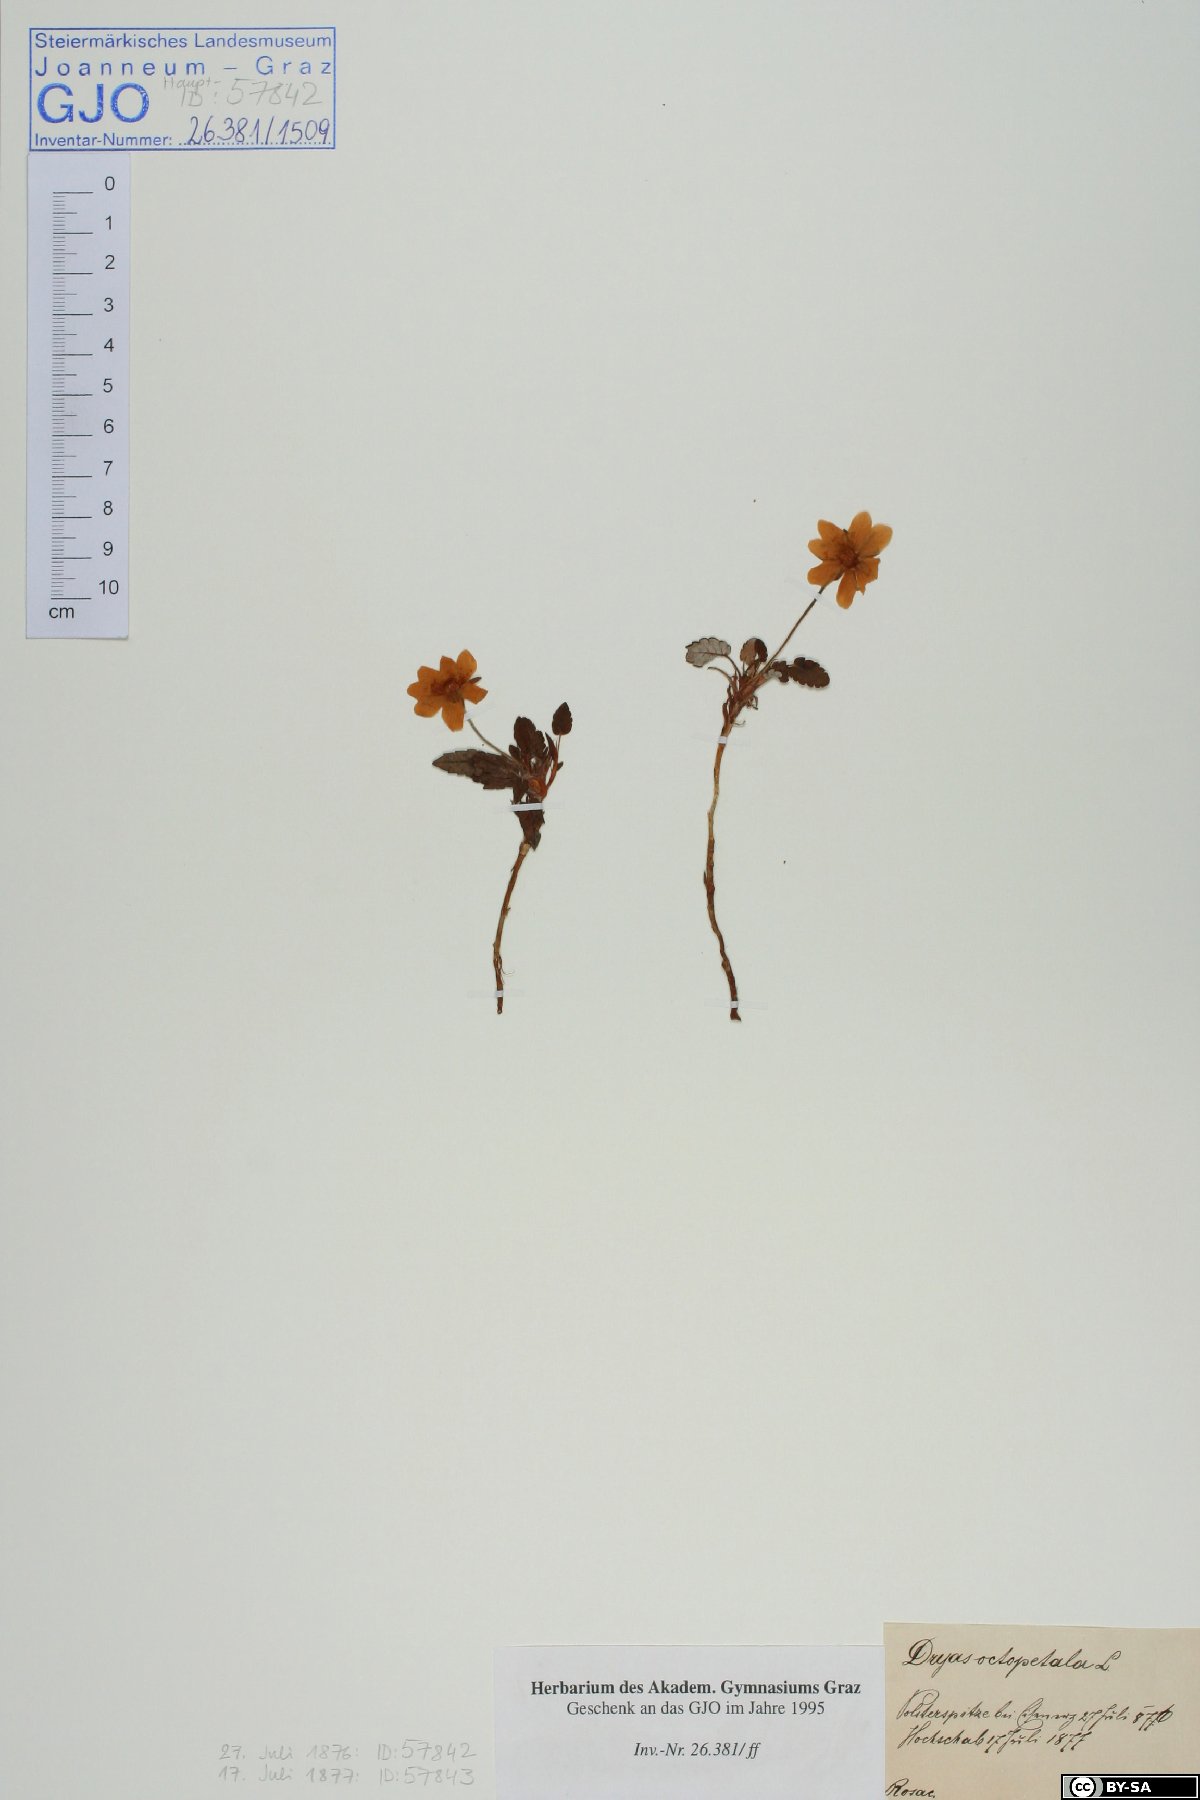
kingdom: Plantae
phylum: Tracheophyta
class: Magnoliopsida
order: Rosales
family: Rosaceae
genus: Dryas
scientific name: Dryas octopetala
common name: Eight-petal mountain-avens
